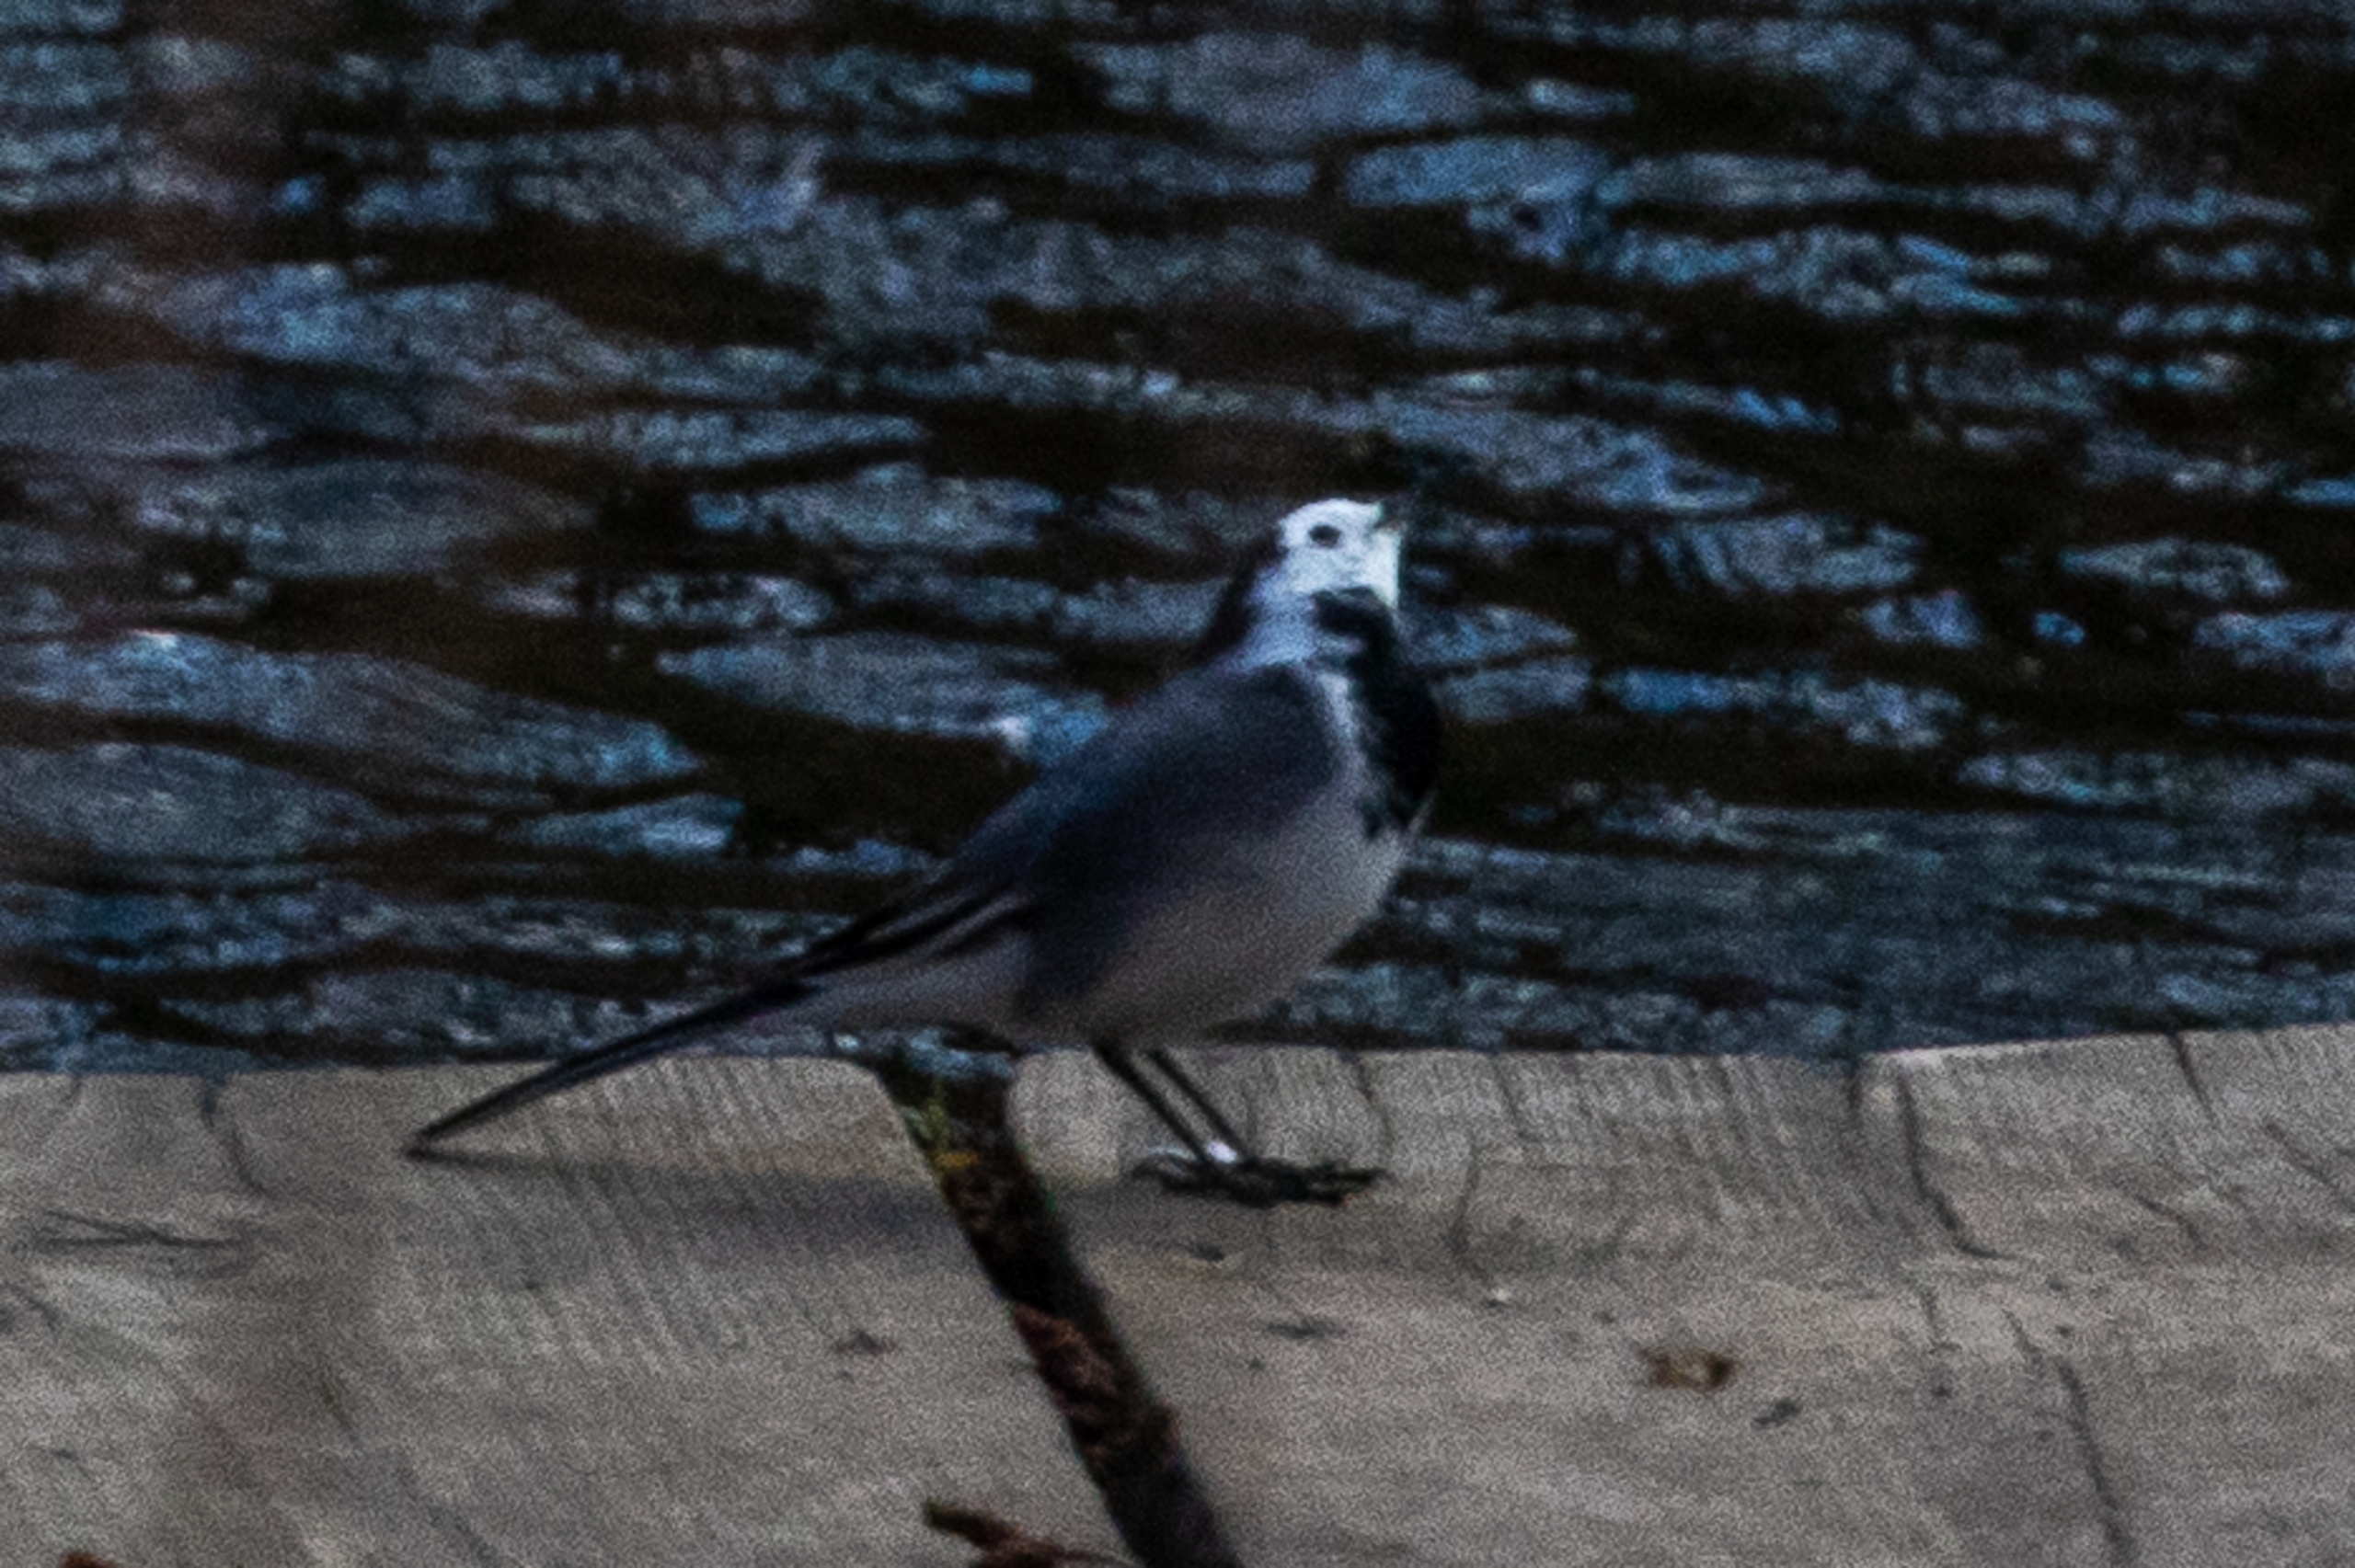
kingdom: Animalia
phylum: Chordata
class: Aves
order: Passeriformes
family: Motacillidae
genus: Motacilla
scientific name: Motacilla alba
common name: Hvid vipstjert
